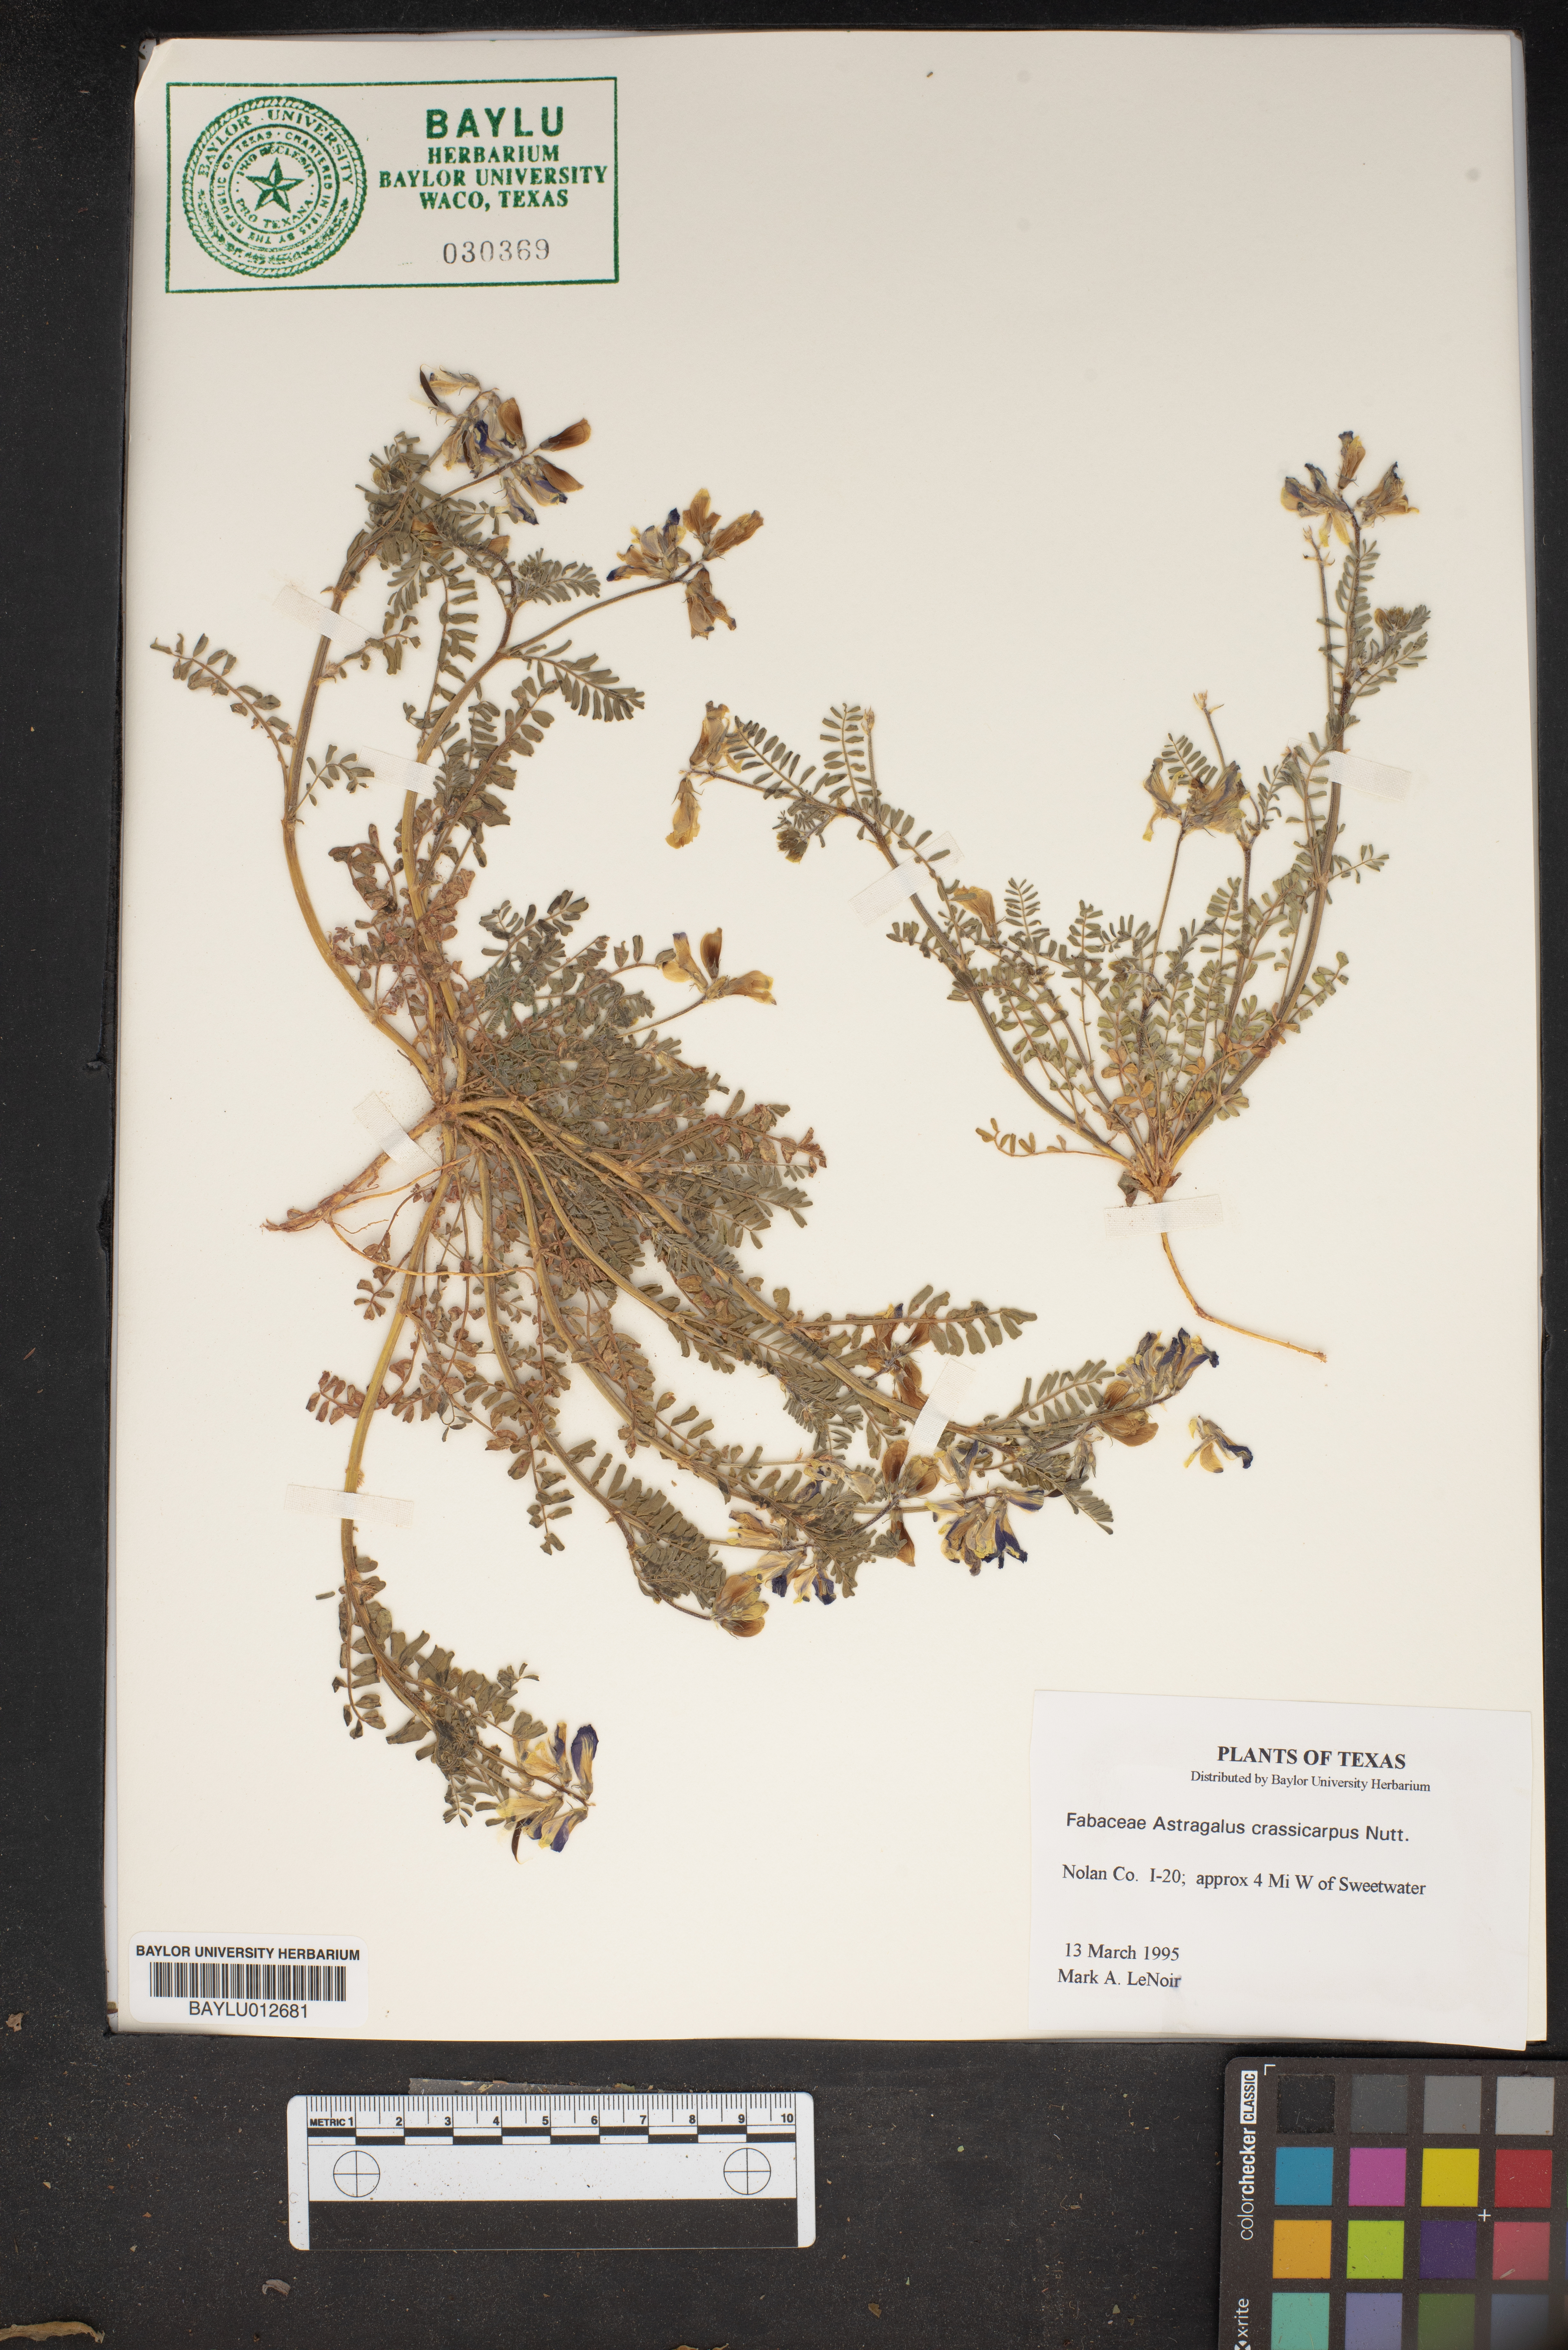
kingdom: Plantae
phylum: Tracheophyta
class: Magnoliopsida
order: Fabales
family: Fabaceae
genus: Astragalus
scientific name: Astragalus crassicarpus
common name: Ground-plum milk-vetch
